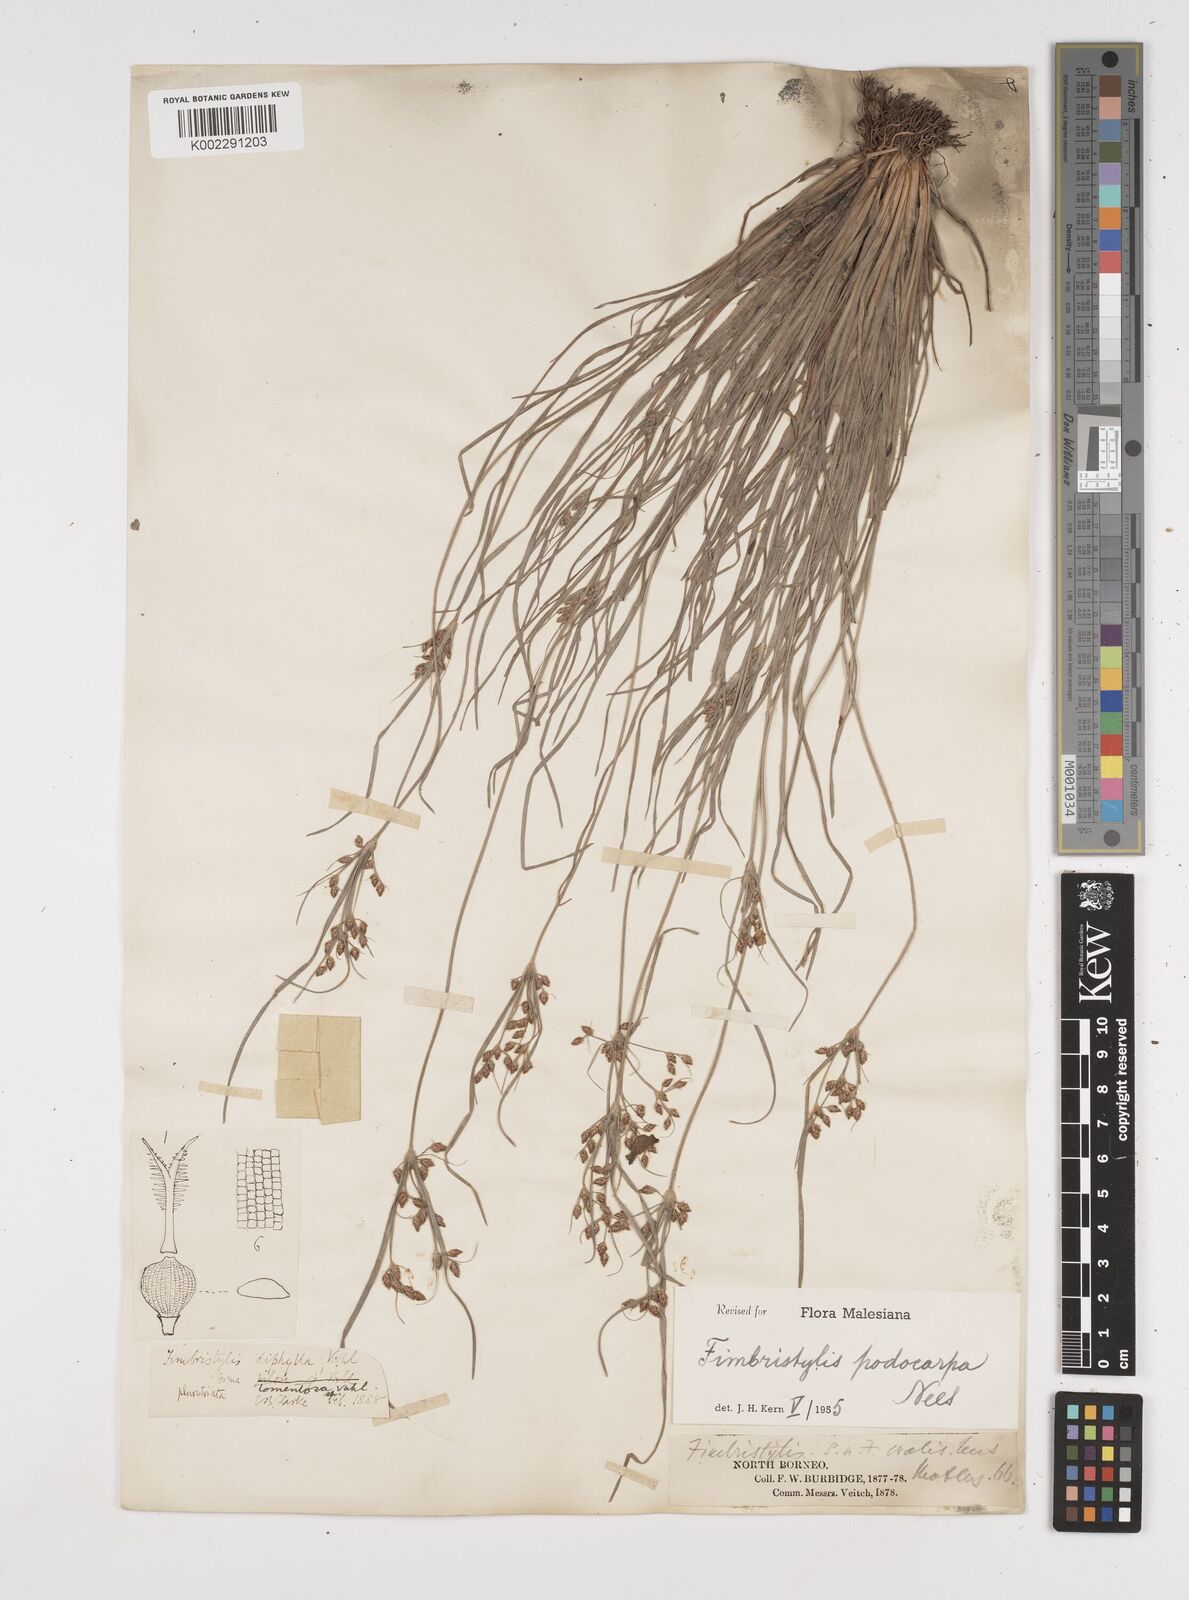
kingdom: Plantae
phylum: Tracheophyta
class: Liliopsida
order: Poales
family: Cyperaceae
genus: Fimbristylis
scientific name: Fimbristylis dichotoma
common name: Forked fimbry
